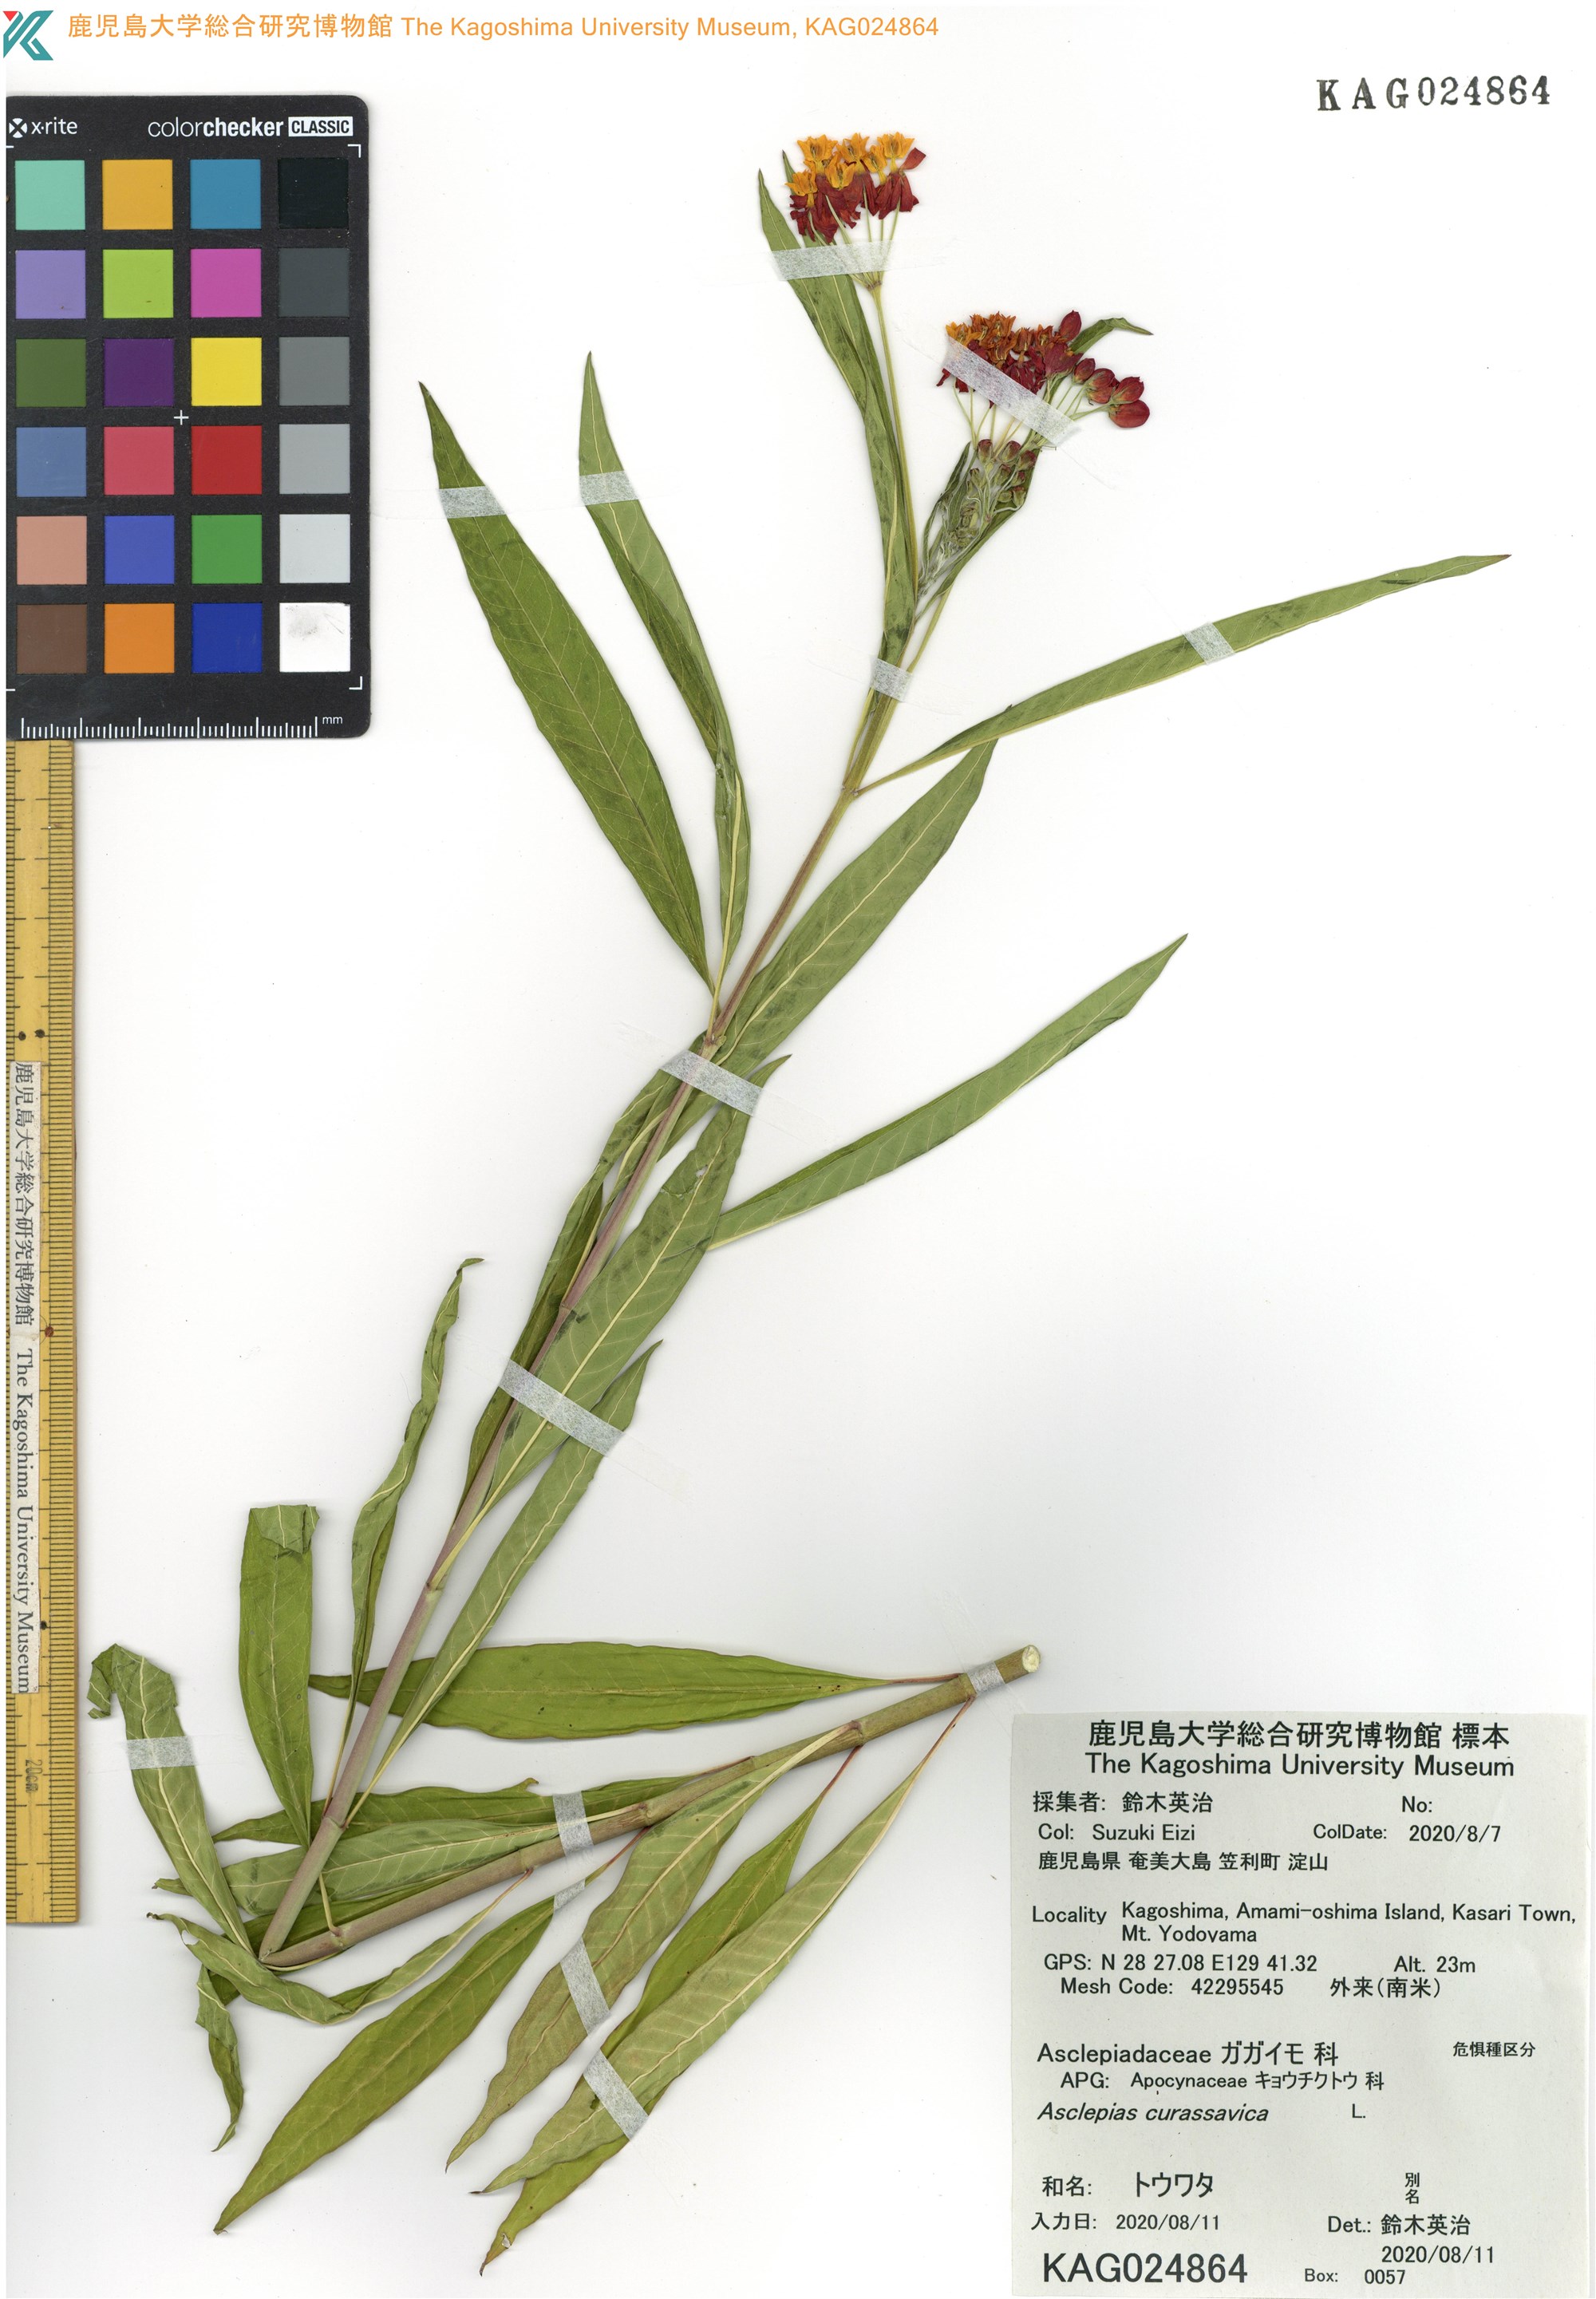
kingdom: Plantae
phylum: Tracheophyta
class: Magnoliopsida
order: Gentianales
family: Apocynaceae
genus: Asclepias
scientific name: Asclepias curassavica
